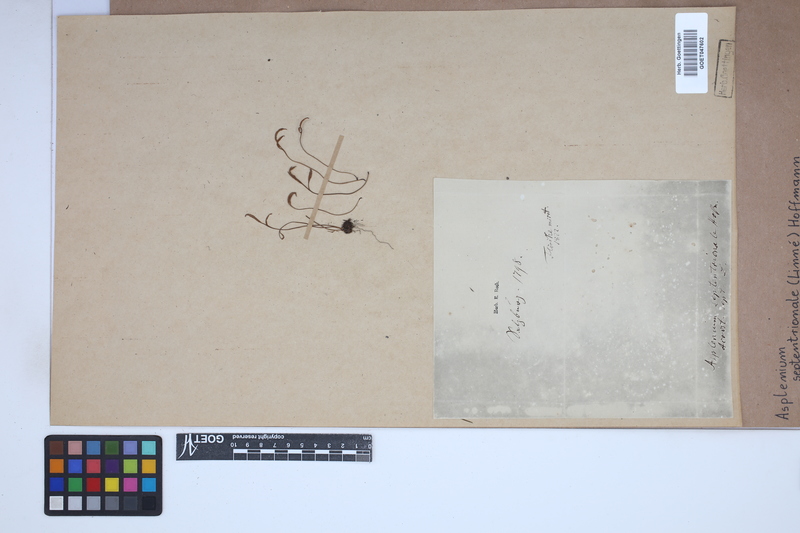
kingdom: Plantae
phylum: Tracheophyta
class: Polypodiopsida
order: Polypodiales
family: Aspleniaceae
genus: Asplenium
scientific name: Asplenium septentrionale
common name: Forked spleenwort
